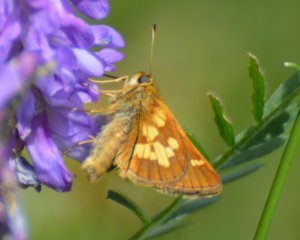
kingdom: Animalia
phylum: Arthropoda
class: Insecta
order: Lepidoptera
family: Hesperiidae
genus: Polites
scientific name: Polites coras
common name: Peck's Skipper
